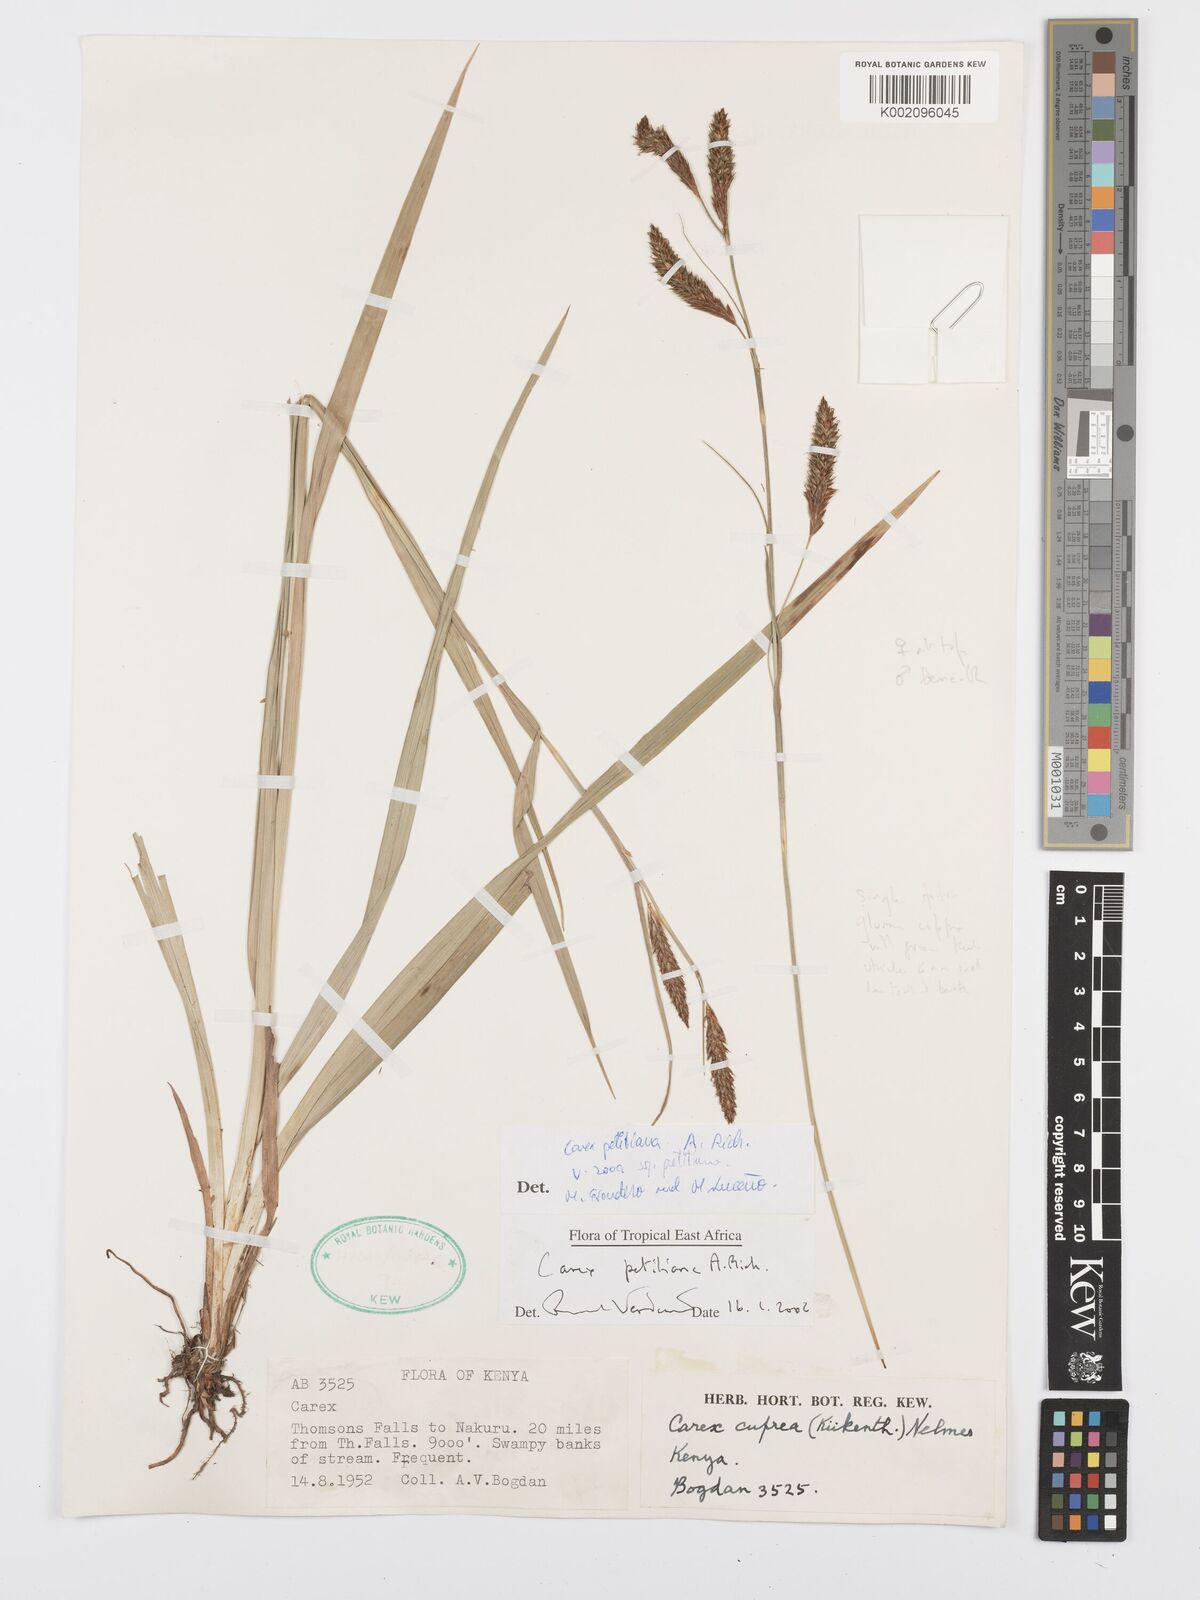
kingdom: Plantae
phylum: Tracheophyta
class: Liliopsida
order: Poales
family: Cyperaceae
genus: Carex
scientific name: Carex petitiana
